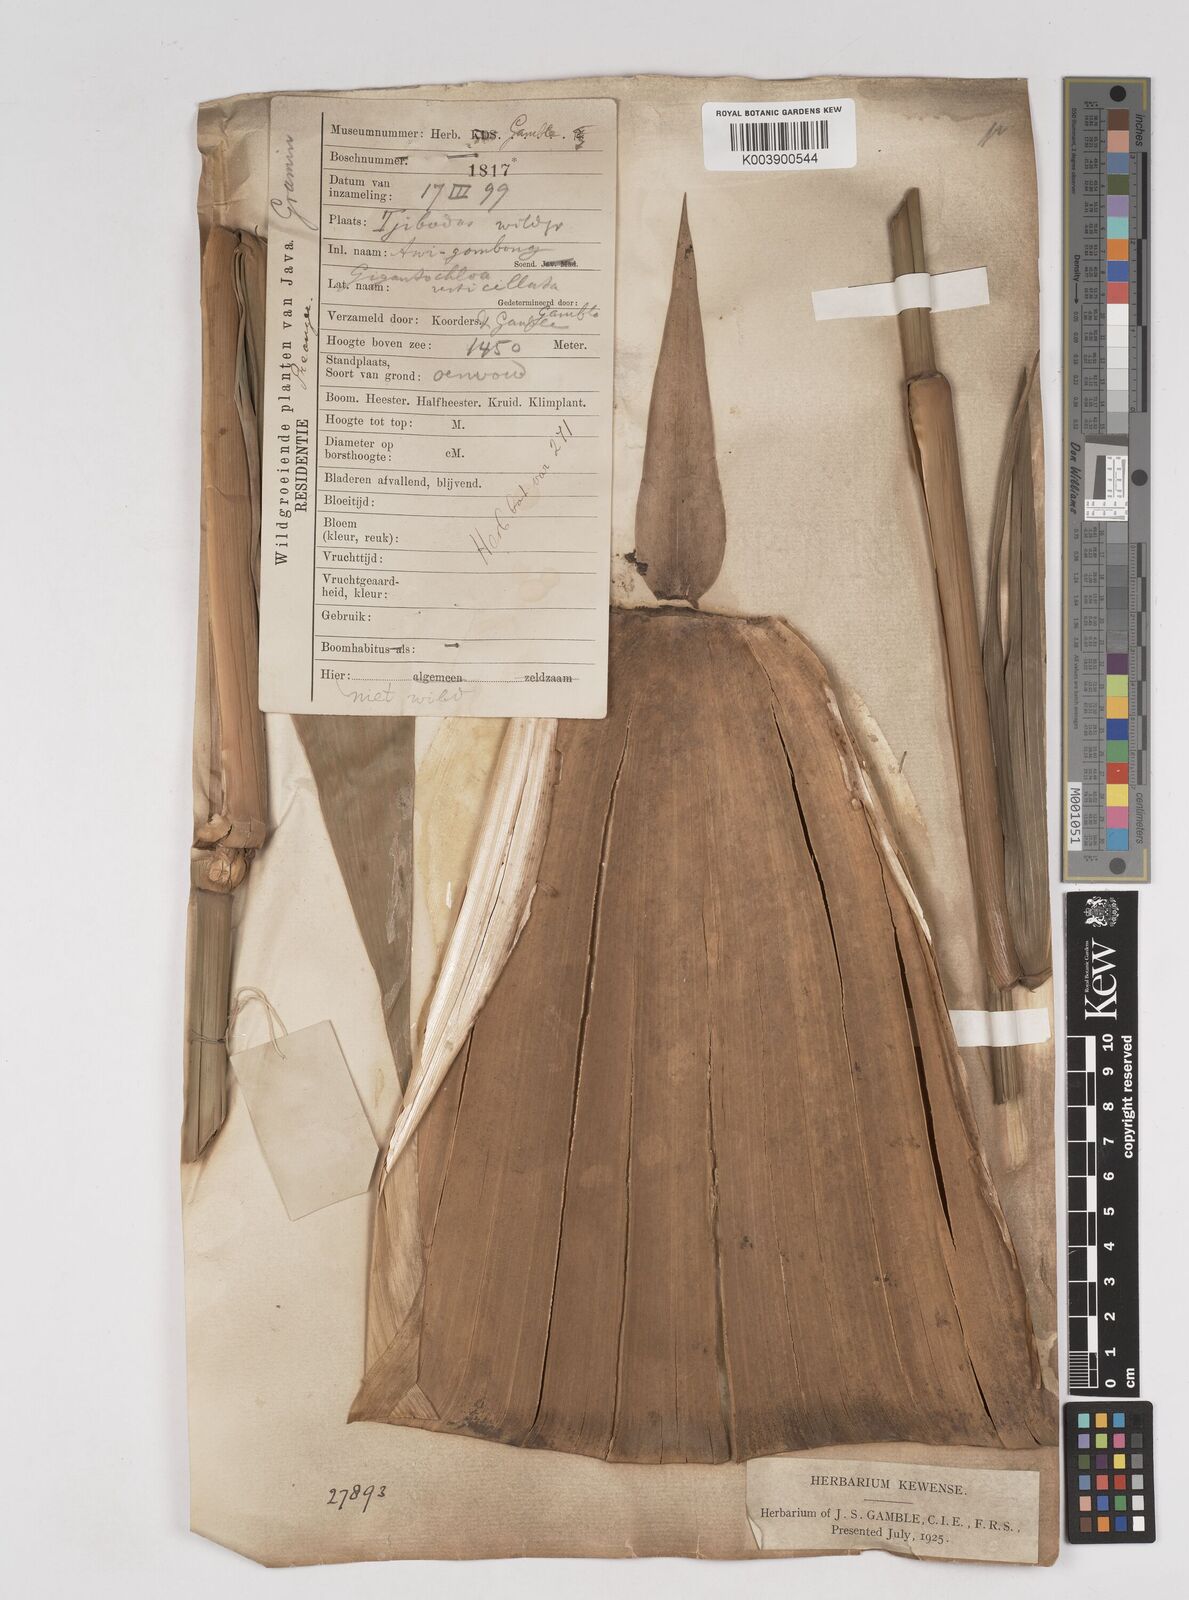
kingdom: Plantae
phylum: Tracheophyta
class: Liliopsida
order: Poales
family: Poaceae
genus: Gigantochloa
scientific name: Gigantochloa robusta
